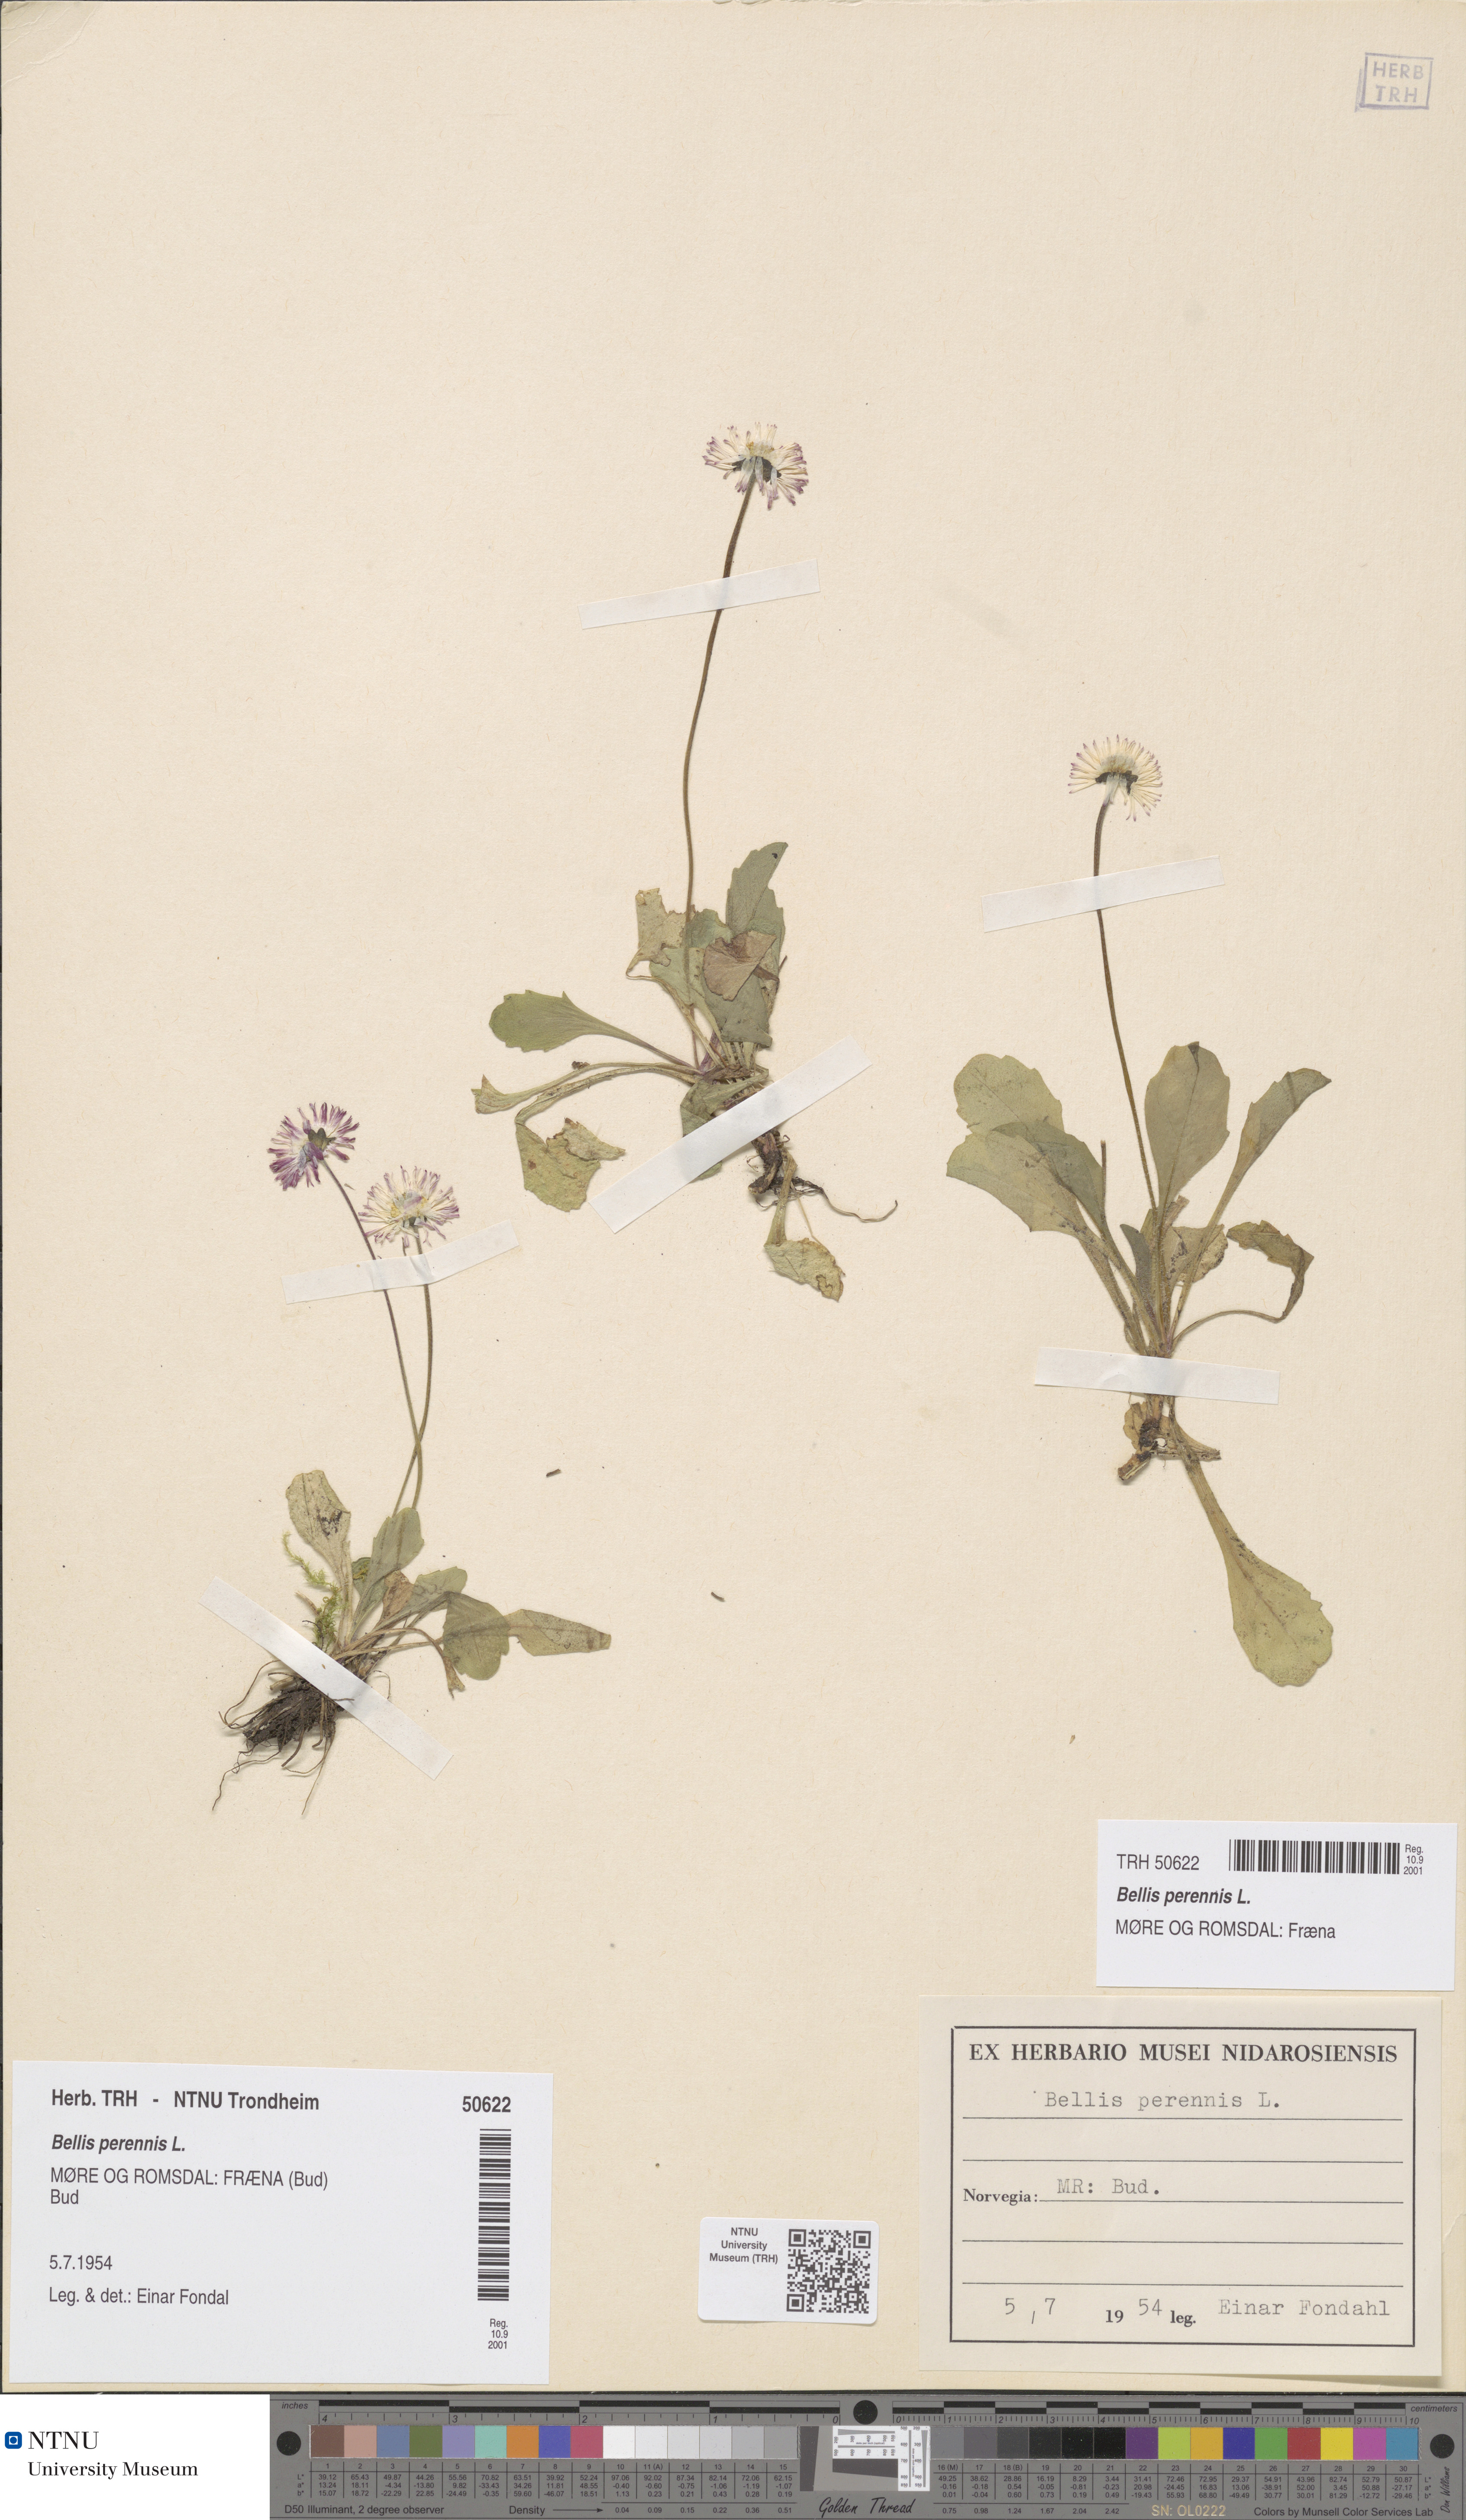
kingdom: Plantae
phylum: Tracheophyta
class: Magnoliopsida
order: Asterales
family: Asteraceae
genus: Bellis
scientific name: Bellis perennis
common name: Lawndaisy
